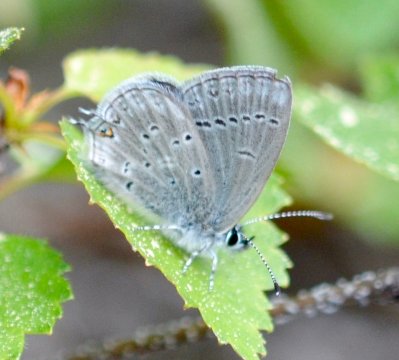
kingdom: Animalia
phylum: Arthropoda
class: Insecta
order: Lepidoptera
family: Lycaenidae
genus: Elkalyce
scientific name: Elkalyce amyntula
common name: Western Tailed-Blue
